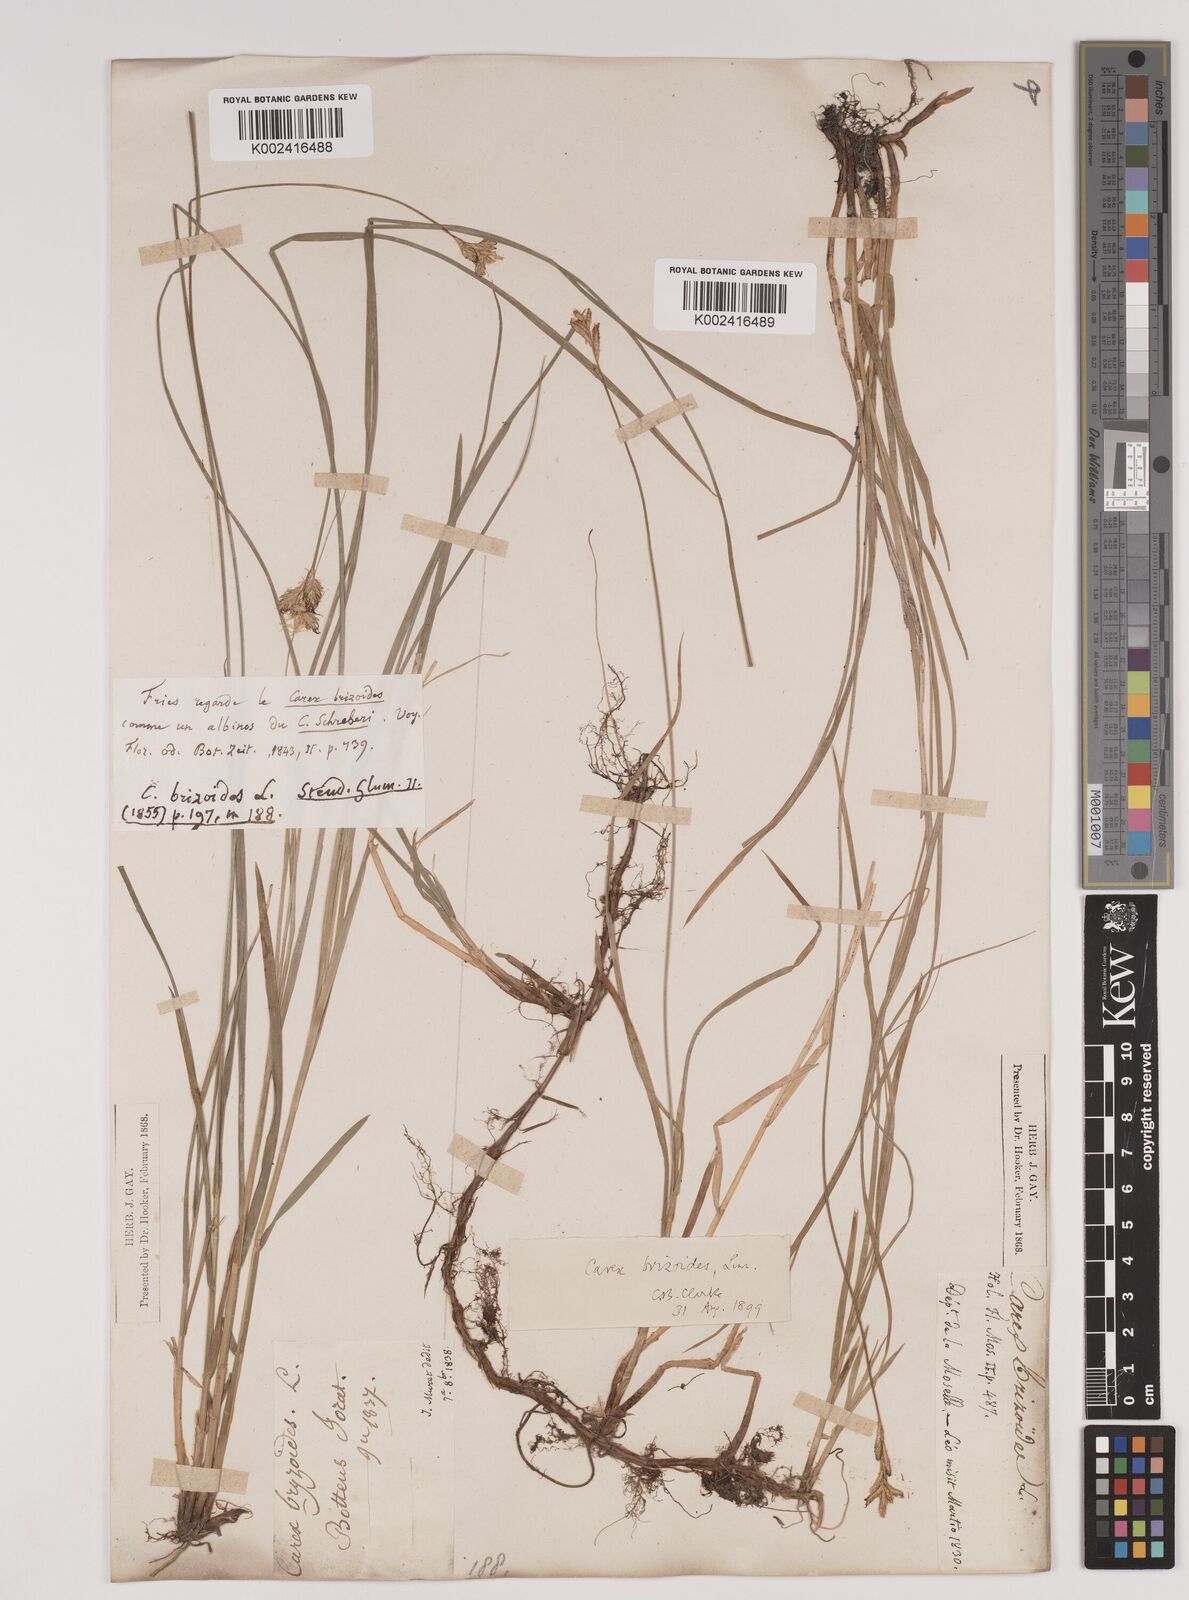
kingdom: Plantae
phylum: Tracheophyta
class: Liliopsida
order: Poales
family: Cyperaceae
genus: Carex
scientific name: Carex brizoides
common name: Quaking-grass sedge
